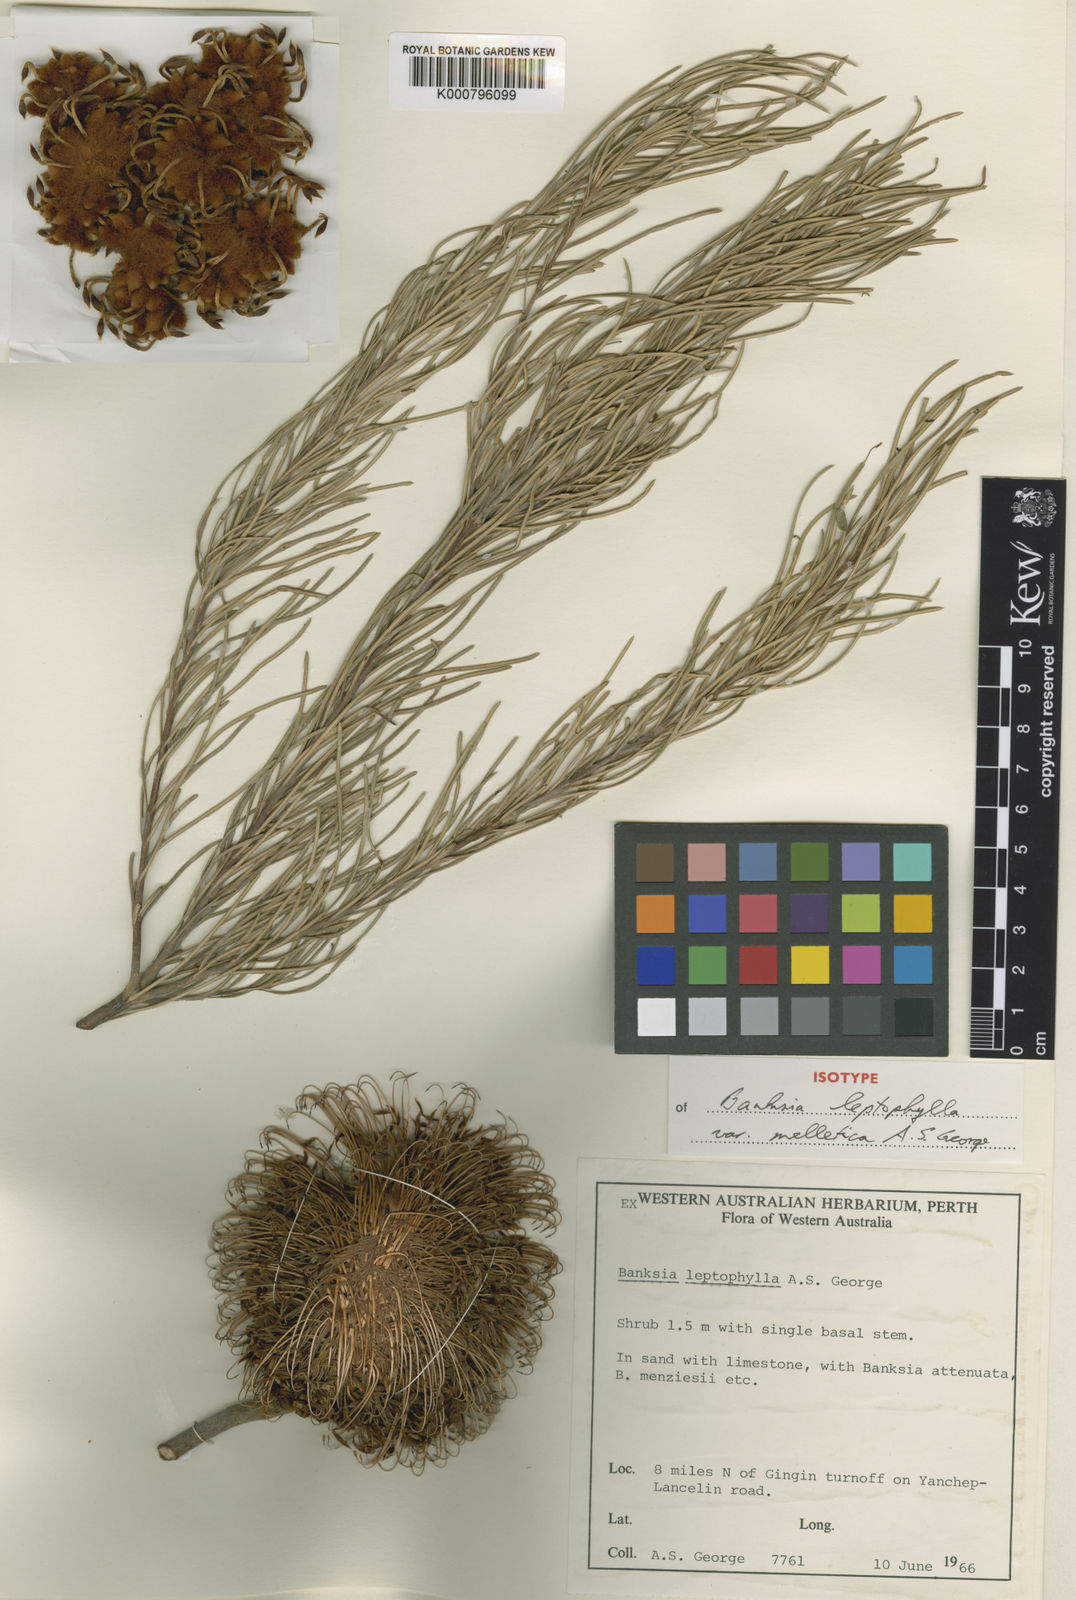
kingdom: Plantae
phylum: Tracheophyta
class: Magnoliopsida
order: Proteales
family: Proteaceae
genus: Banksia
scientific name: Banksia leptophylla
